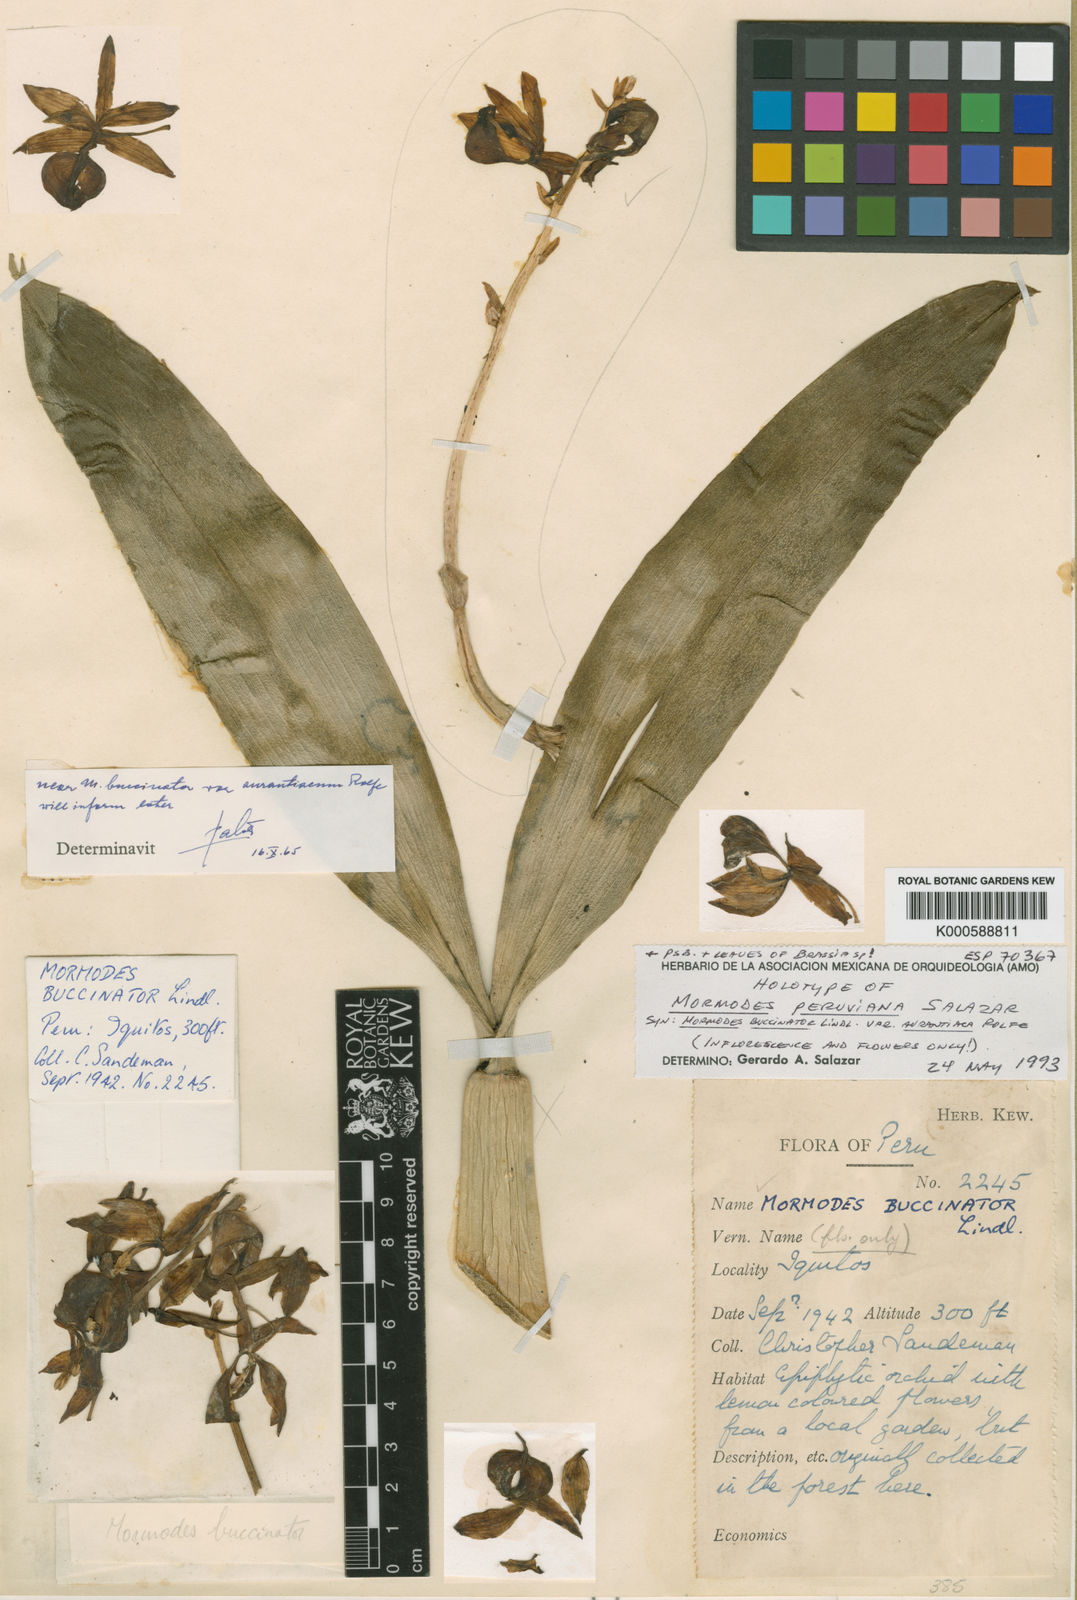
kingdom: Plantae
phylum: Tracheophyta
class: Liliopsida
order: Asparagales
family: Orchidaceae
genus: Mormodes
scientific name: Mormodes peruviana
